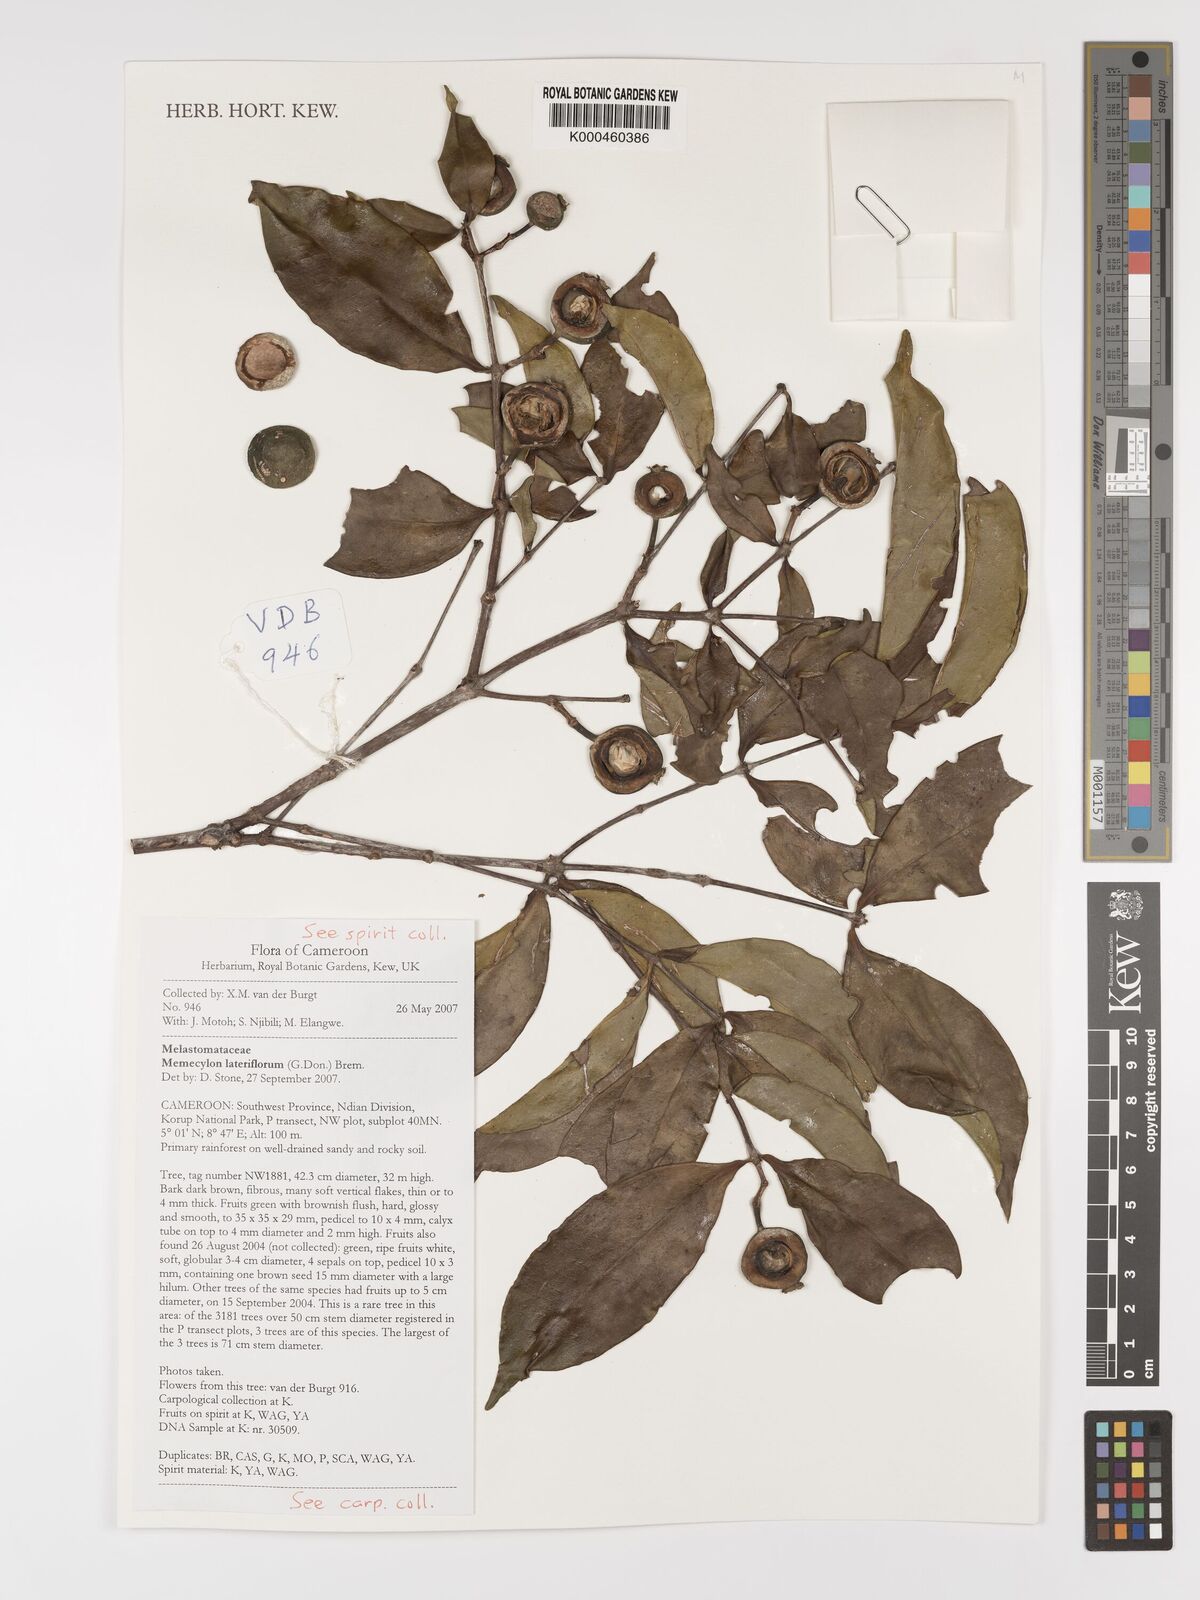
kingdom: Plantae
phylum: Tracheophyta
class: Magnoliopsida
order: Myrtales
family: Melastomataceae
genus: Memecylon
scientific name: Memecylon lateriflorum
